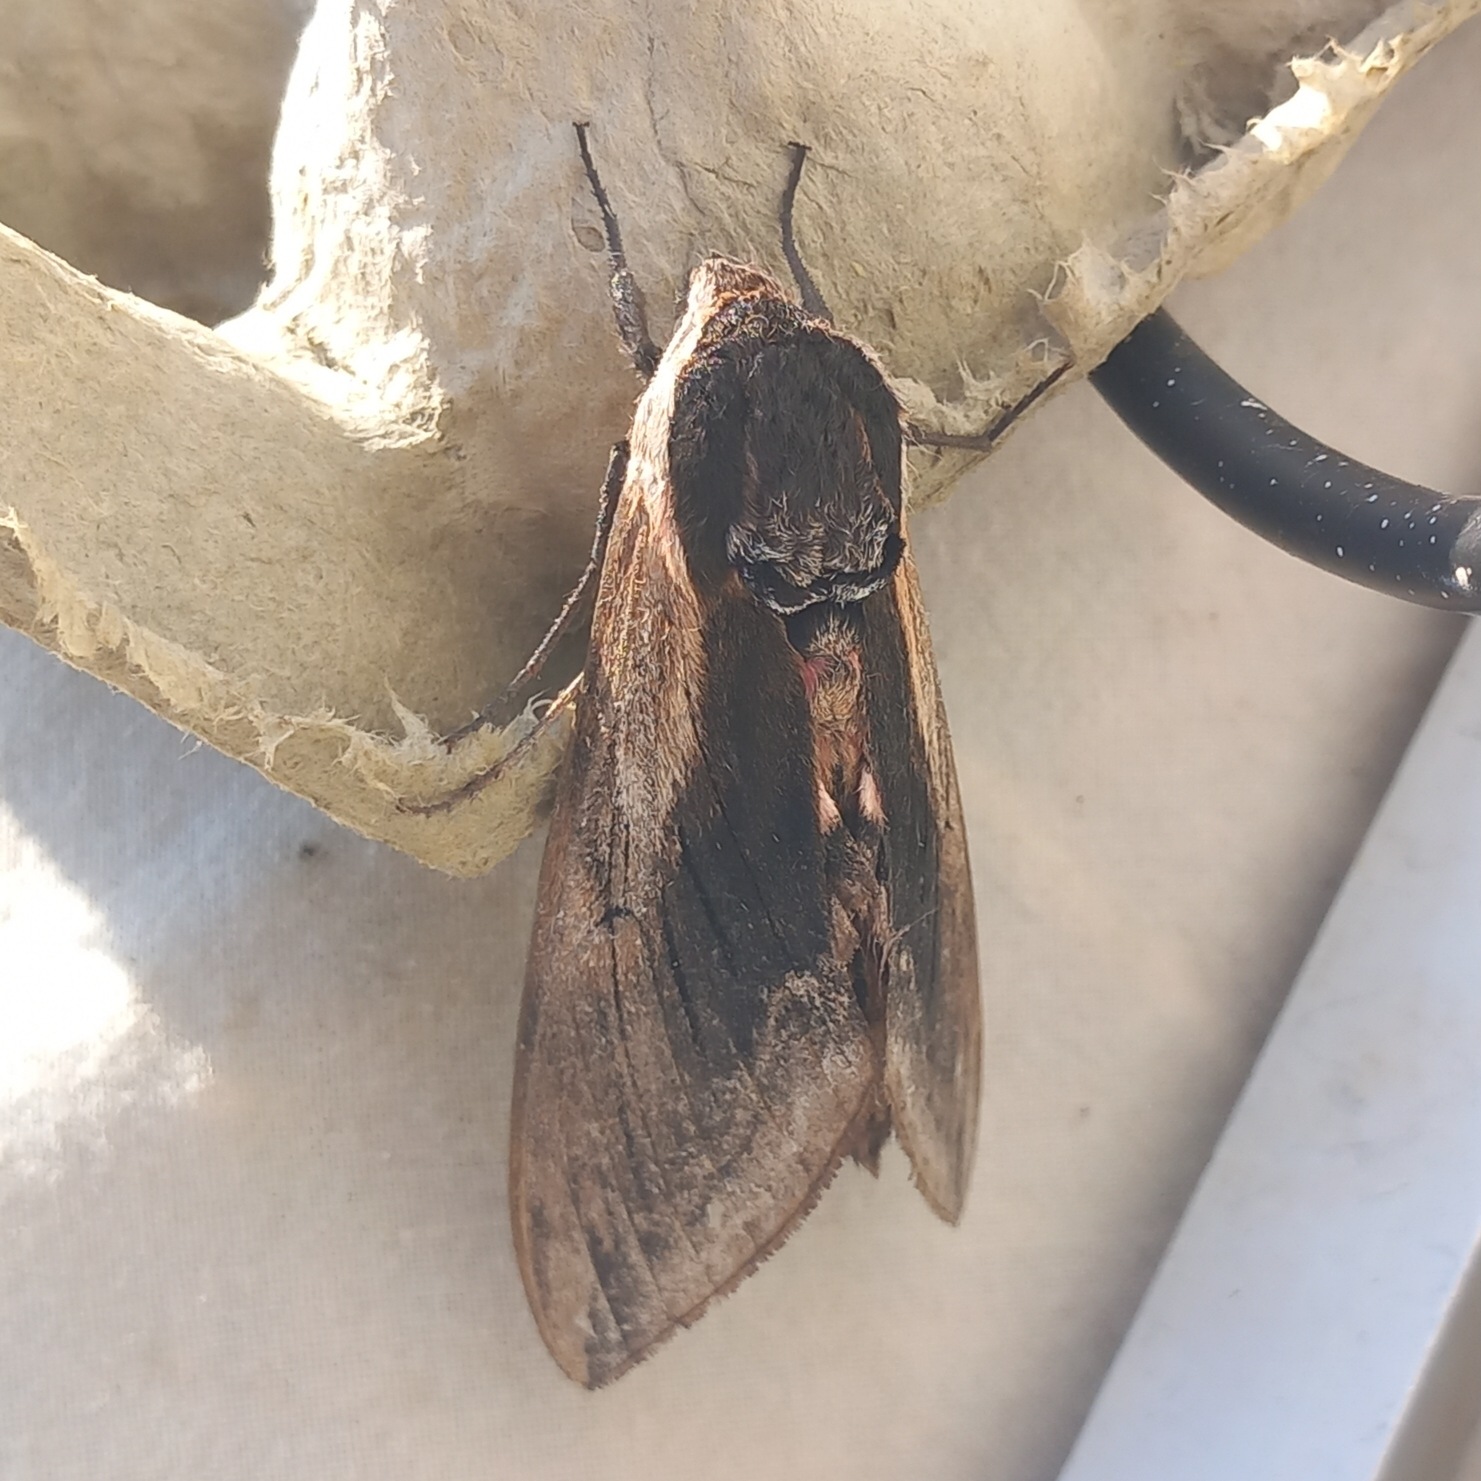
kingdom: Animalia
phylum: Arthropoda
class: Insecta
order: Lepidoptera
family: Sphingidae
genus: Sphinx
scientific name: Sphinx ligustri
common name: Ligustersværmer
